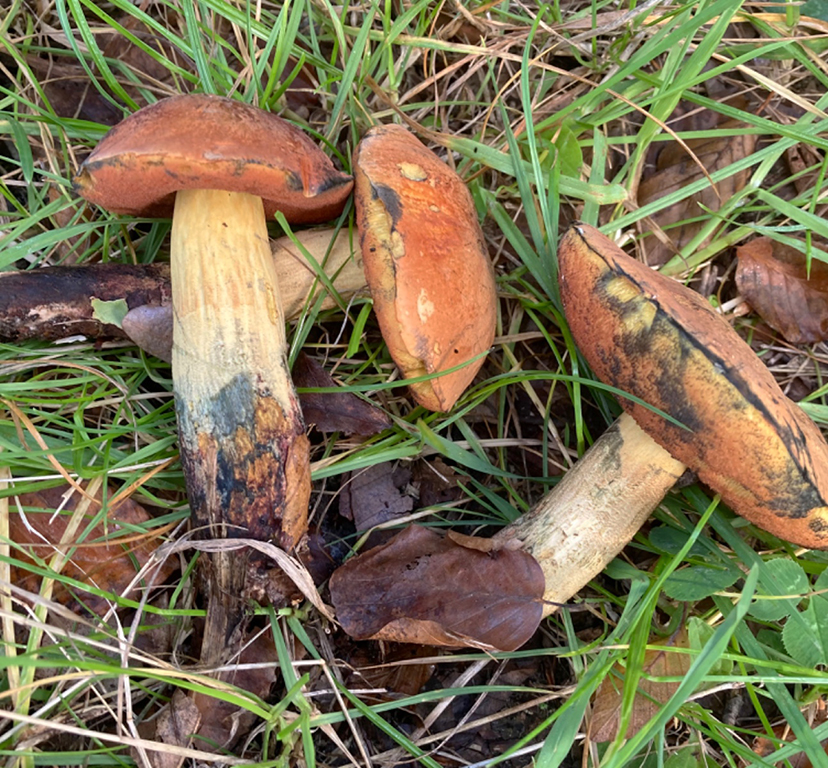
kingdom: Fungi
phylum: Basidiomycota
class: Agaricomycetes
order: Boletales
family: Boletaceae
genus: Suillellus
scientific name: Suillellus queletii
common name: glatstokket indigorørhat
